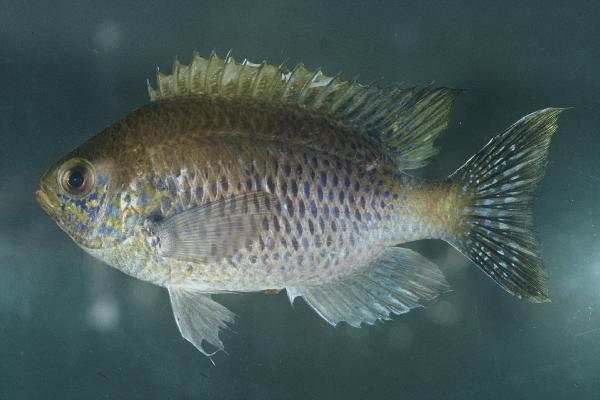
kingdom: Animalia
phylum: Chordata
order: Perciformes
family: Pomacentridae
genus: Chromis
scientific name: Chromis dasygenys
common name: Blue-spotted chromis
